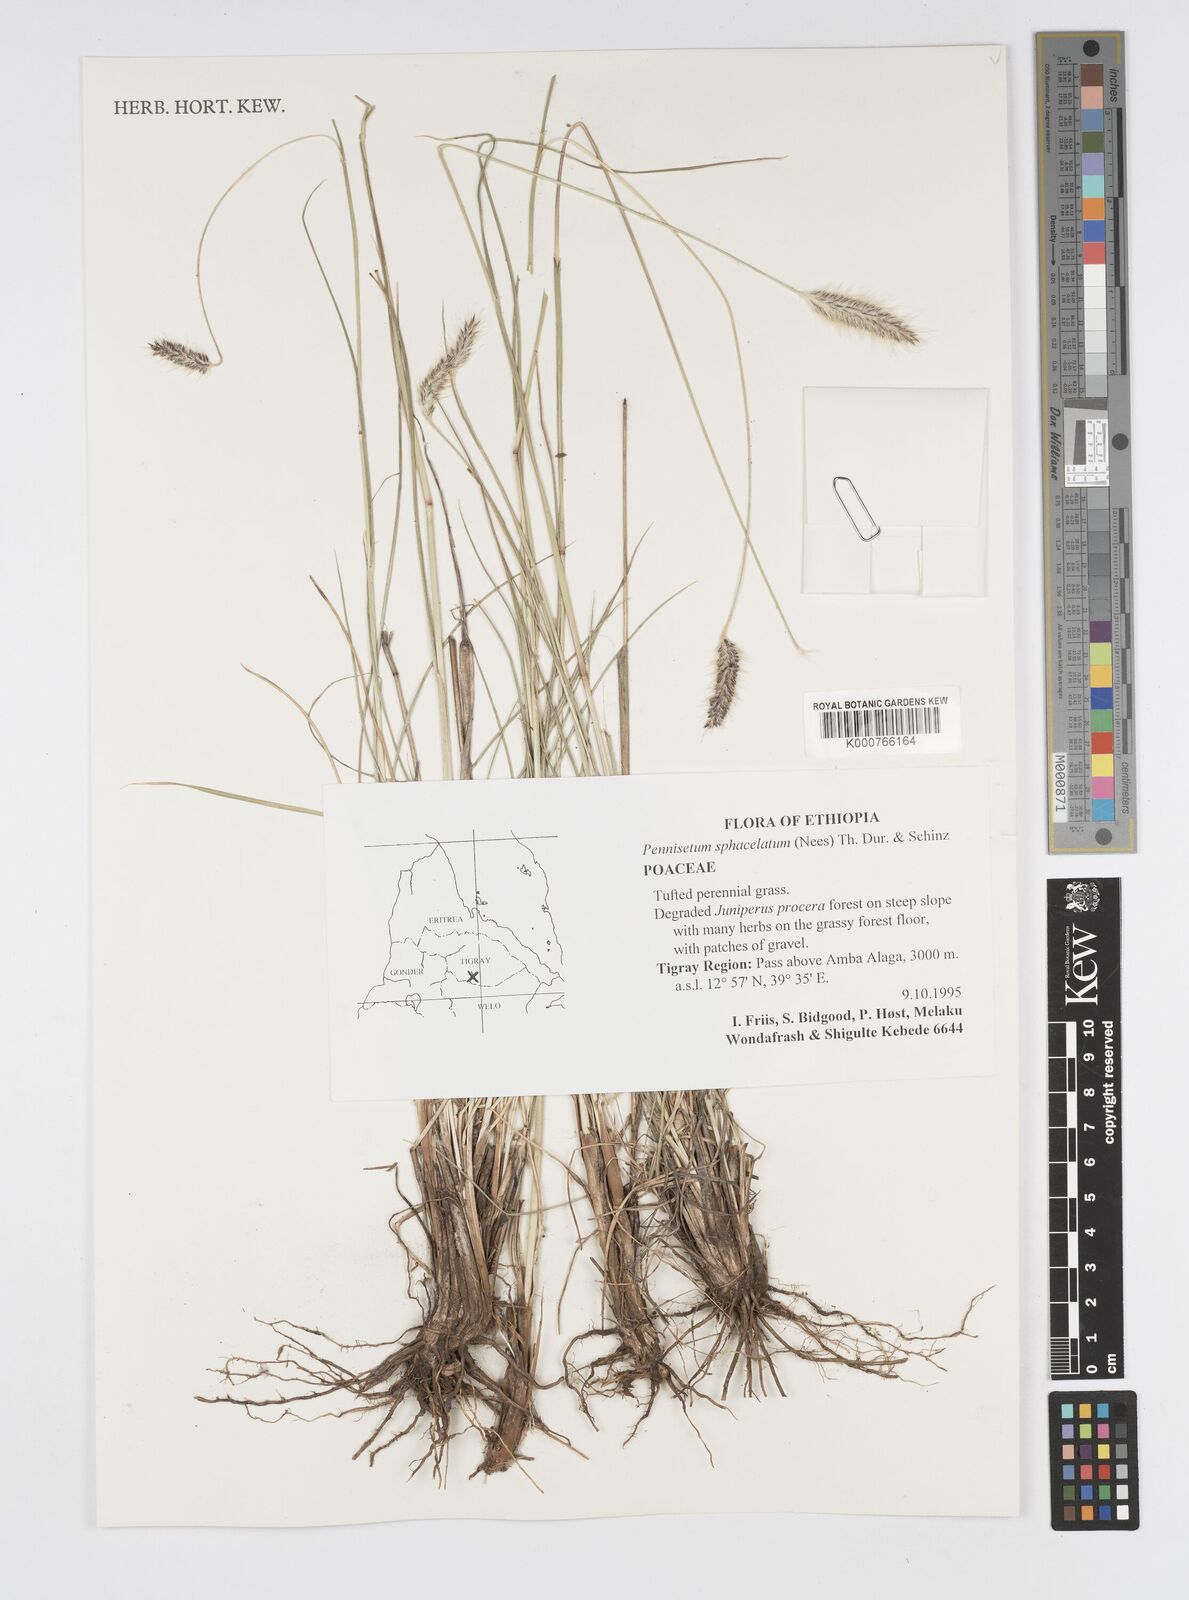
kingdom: Plantae
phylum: Tracheophyta
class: Liliopsida
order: Poales
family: Poaceae
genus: Cenchrus
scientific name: Cenchrus sphacelatus
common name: Bulgras
